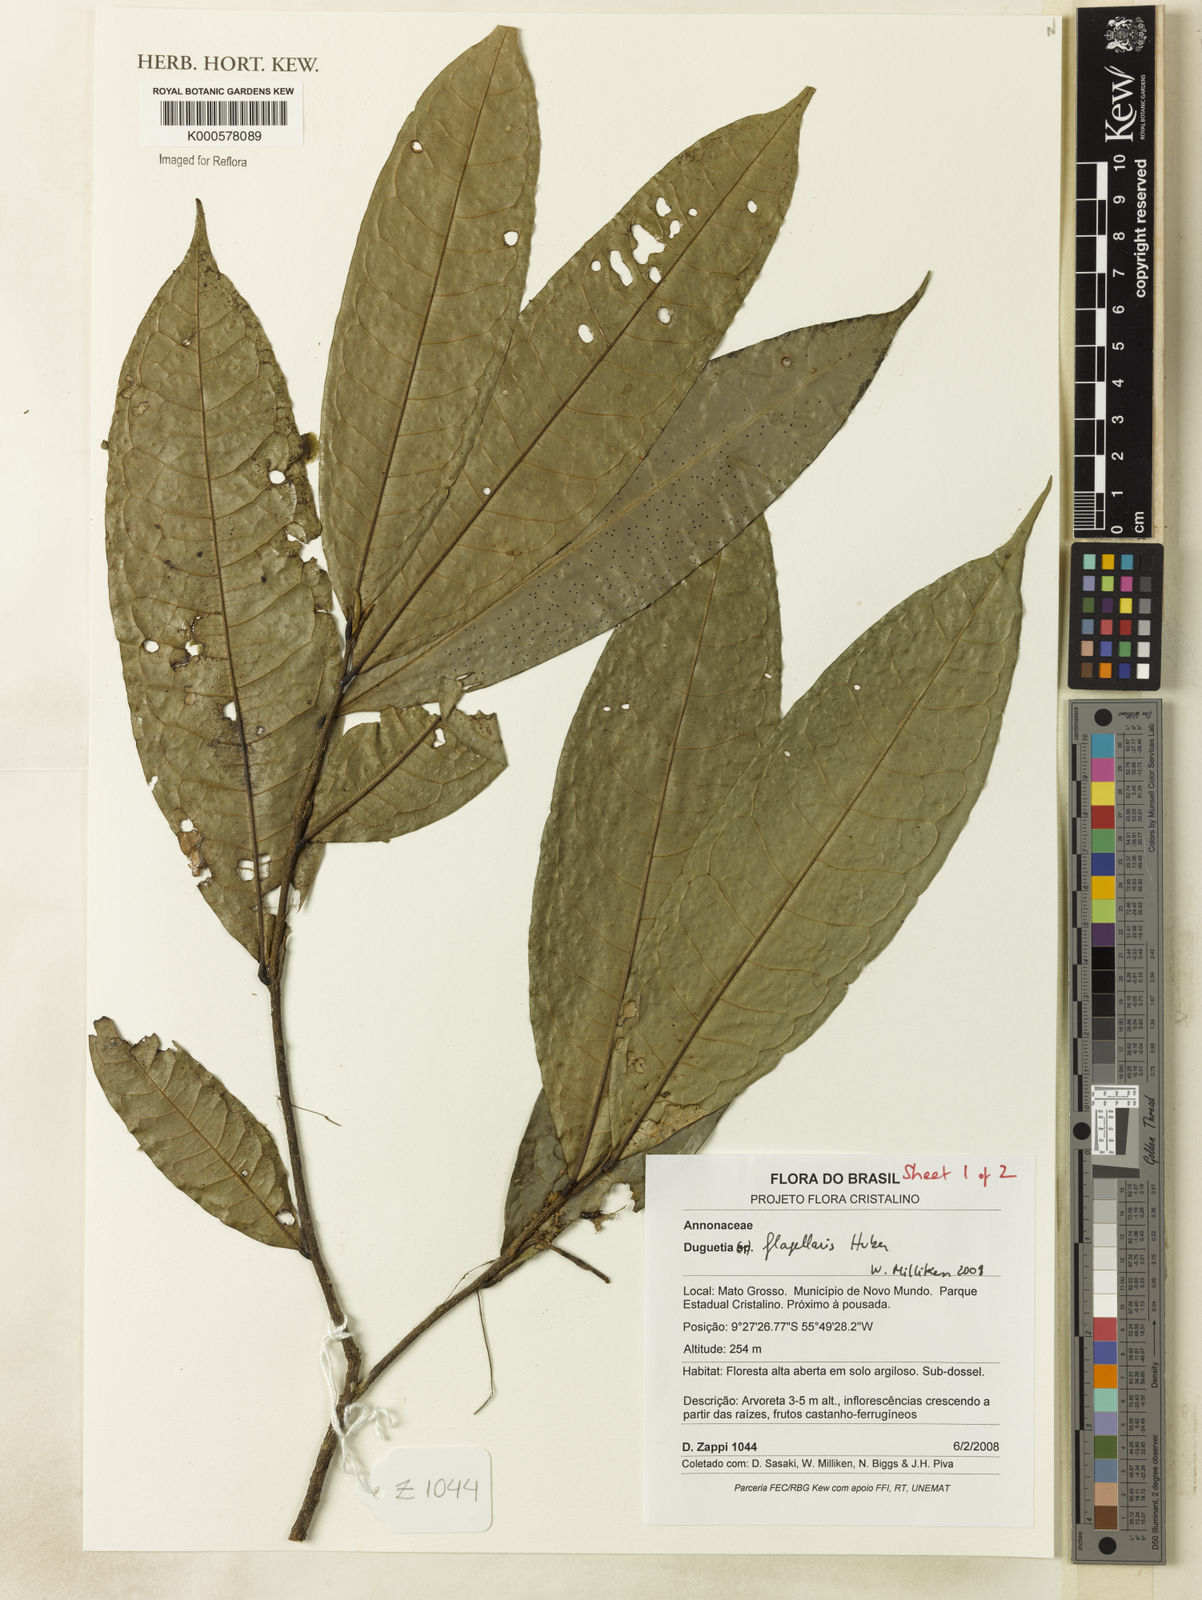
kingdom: Plantae
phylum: Tracheophyta
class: Magnoliopsida
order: Magnoliales
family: Annonaceae
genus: Duguetia
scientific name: Duguetia flagellaris
